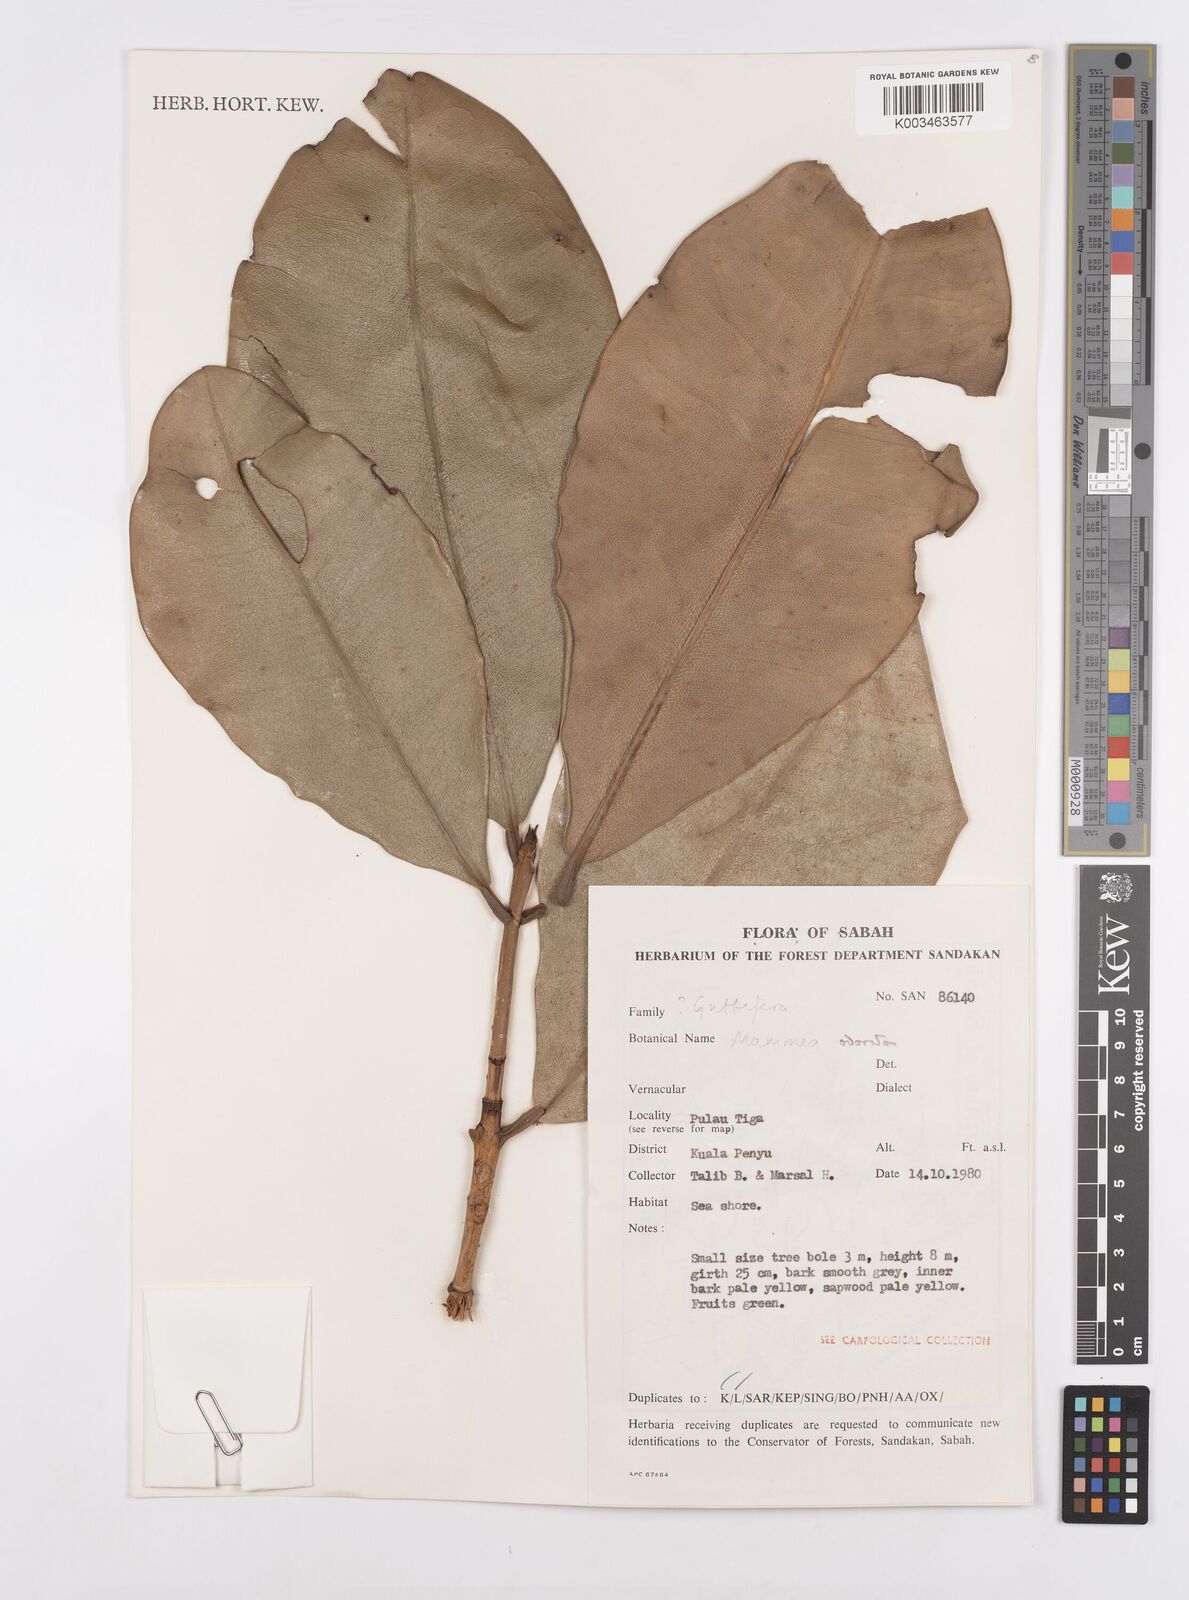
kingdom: Plantae
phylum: Tracheophyta
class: Magnoliopsida
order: Malpighiales
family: Calophyllaceae
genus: Mammea
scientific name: Mammea odorata
